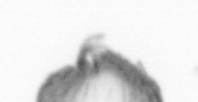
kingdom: Animalia
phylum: Annelida
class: Polychaeta
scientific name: Polychaeta
